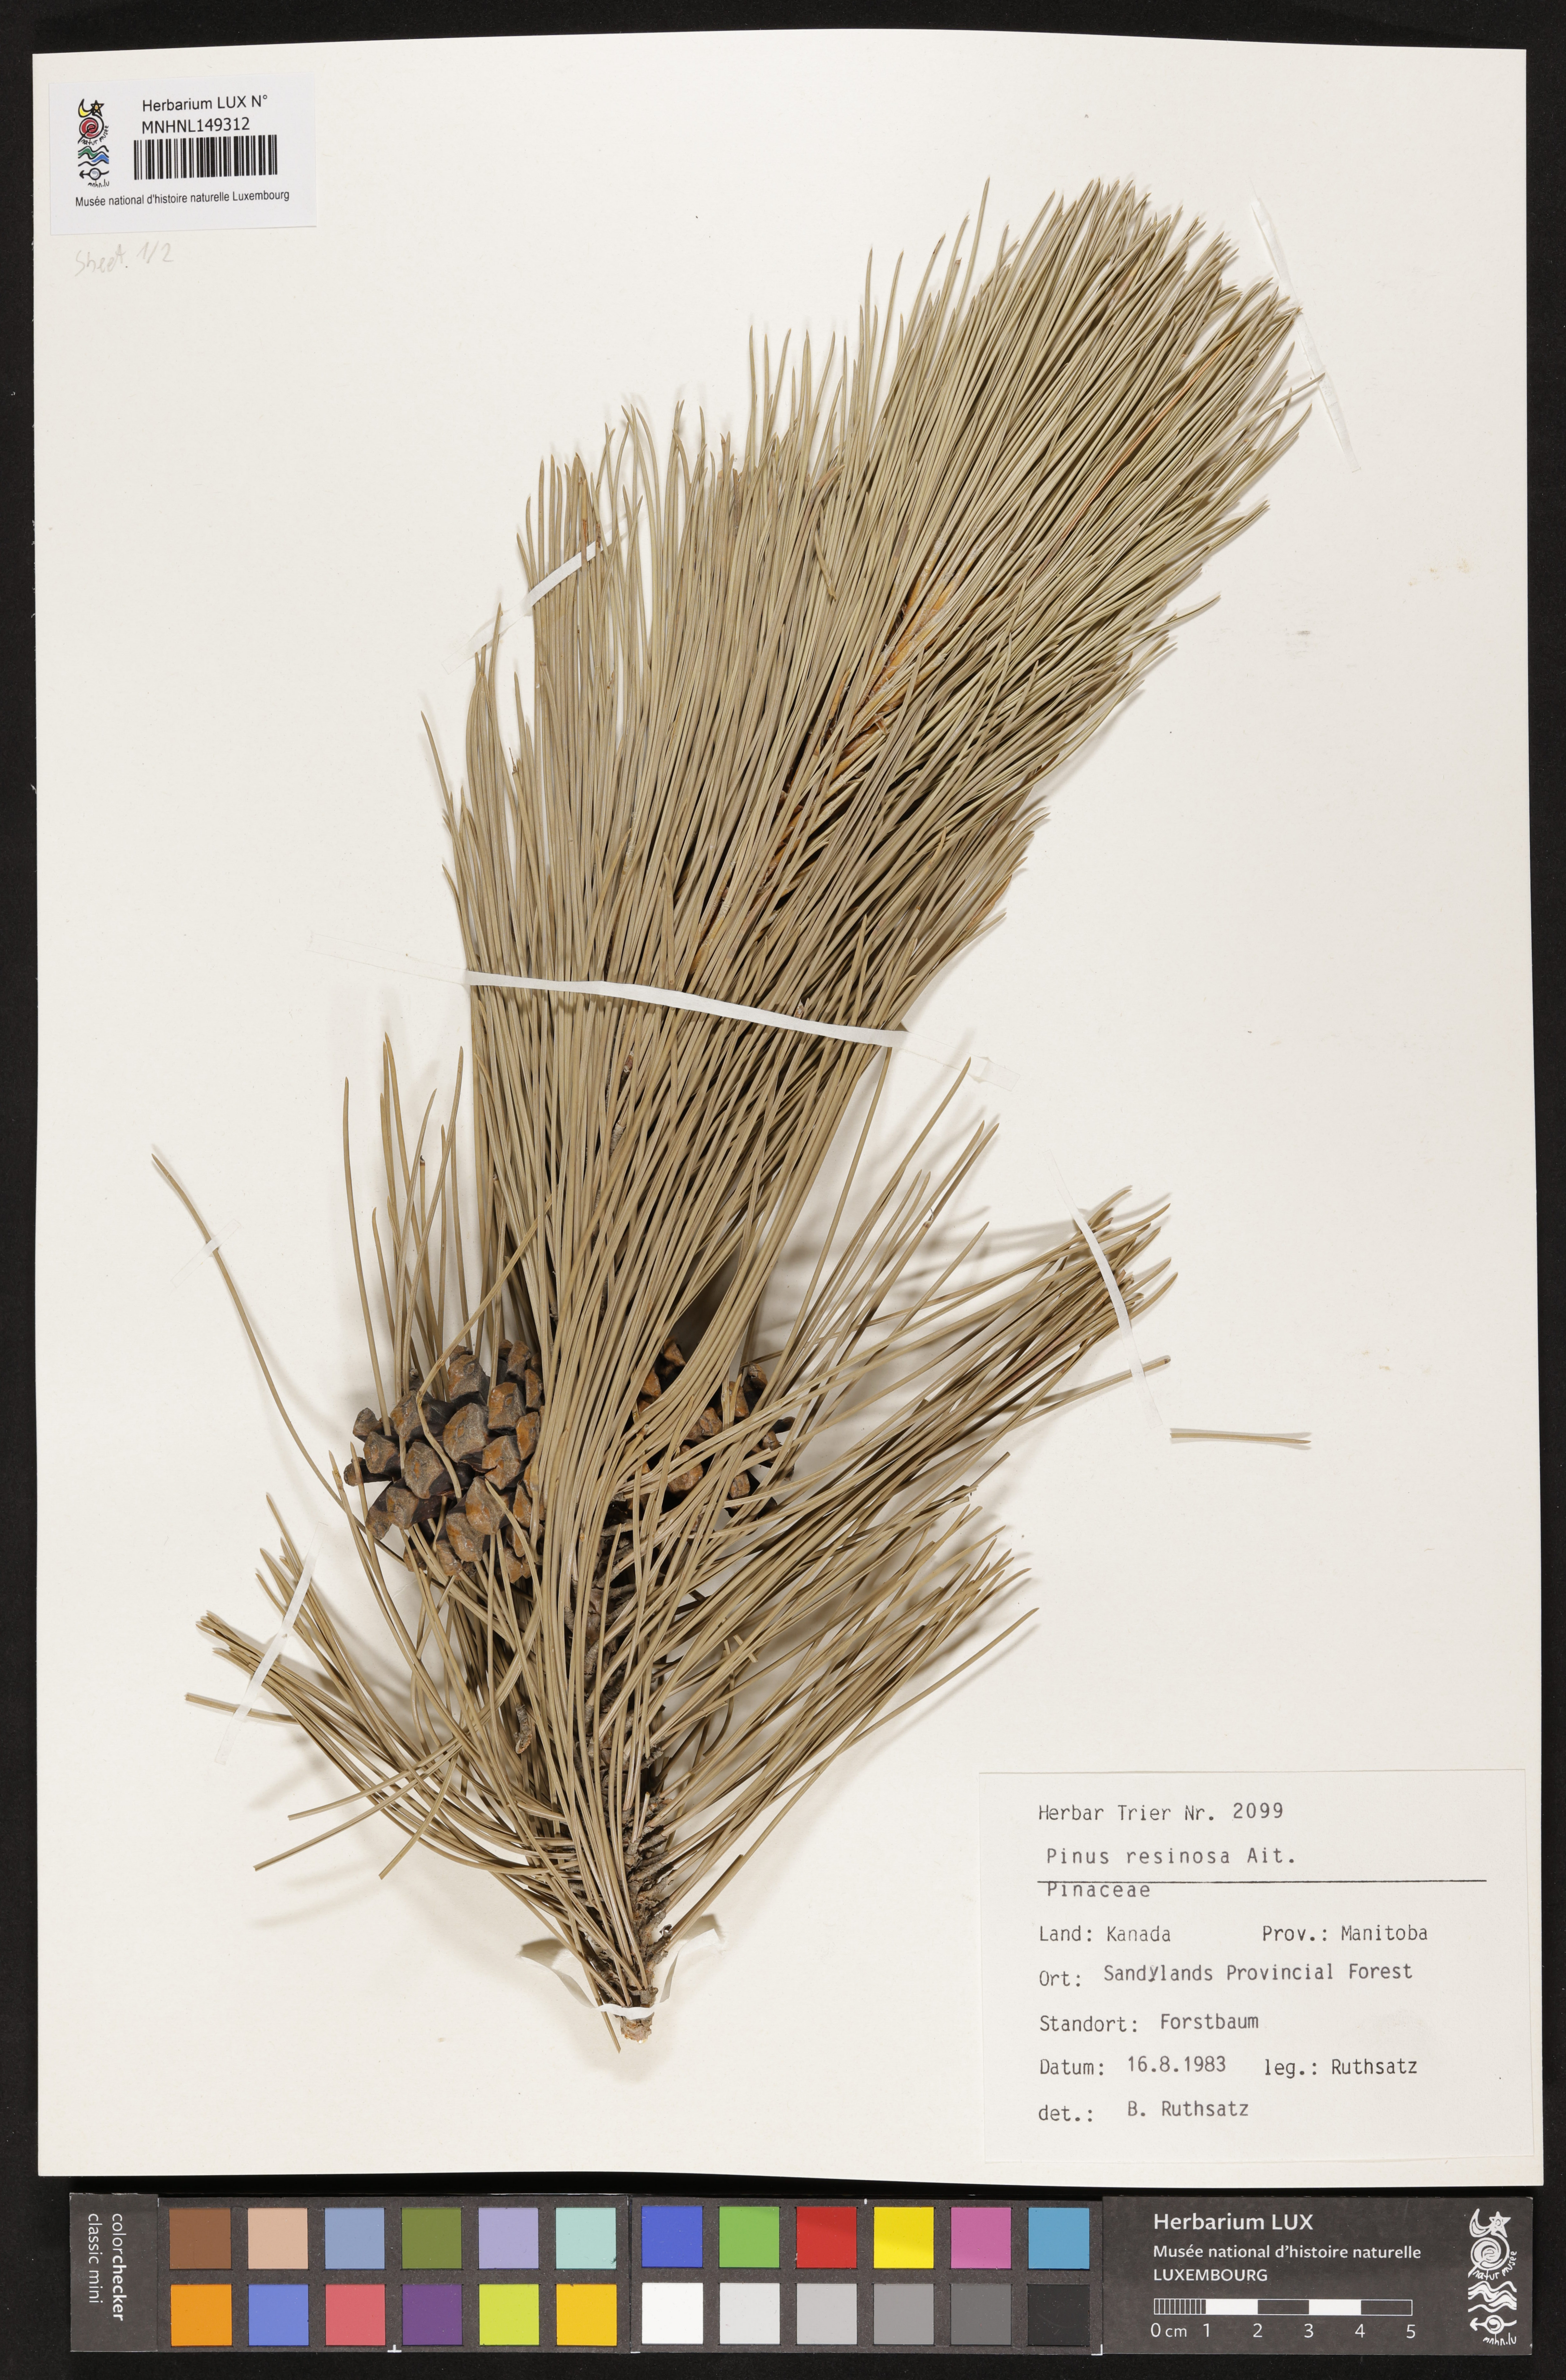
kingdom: Plantae
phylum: Tracheophyta
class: Pinopsida
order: Pinales
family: Pinaceae
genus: Pinus
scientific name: Pinus resinosa
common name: Norway pine
